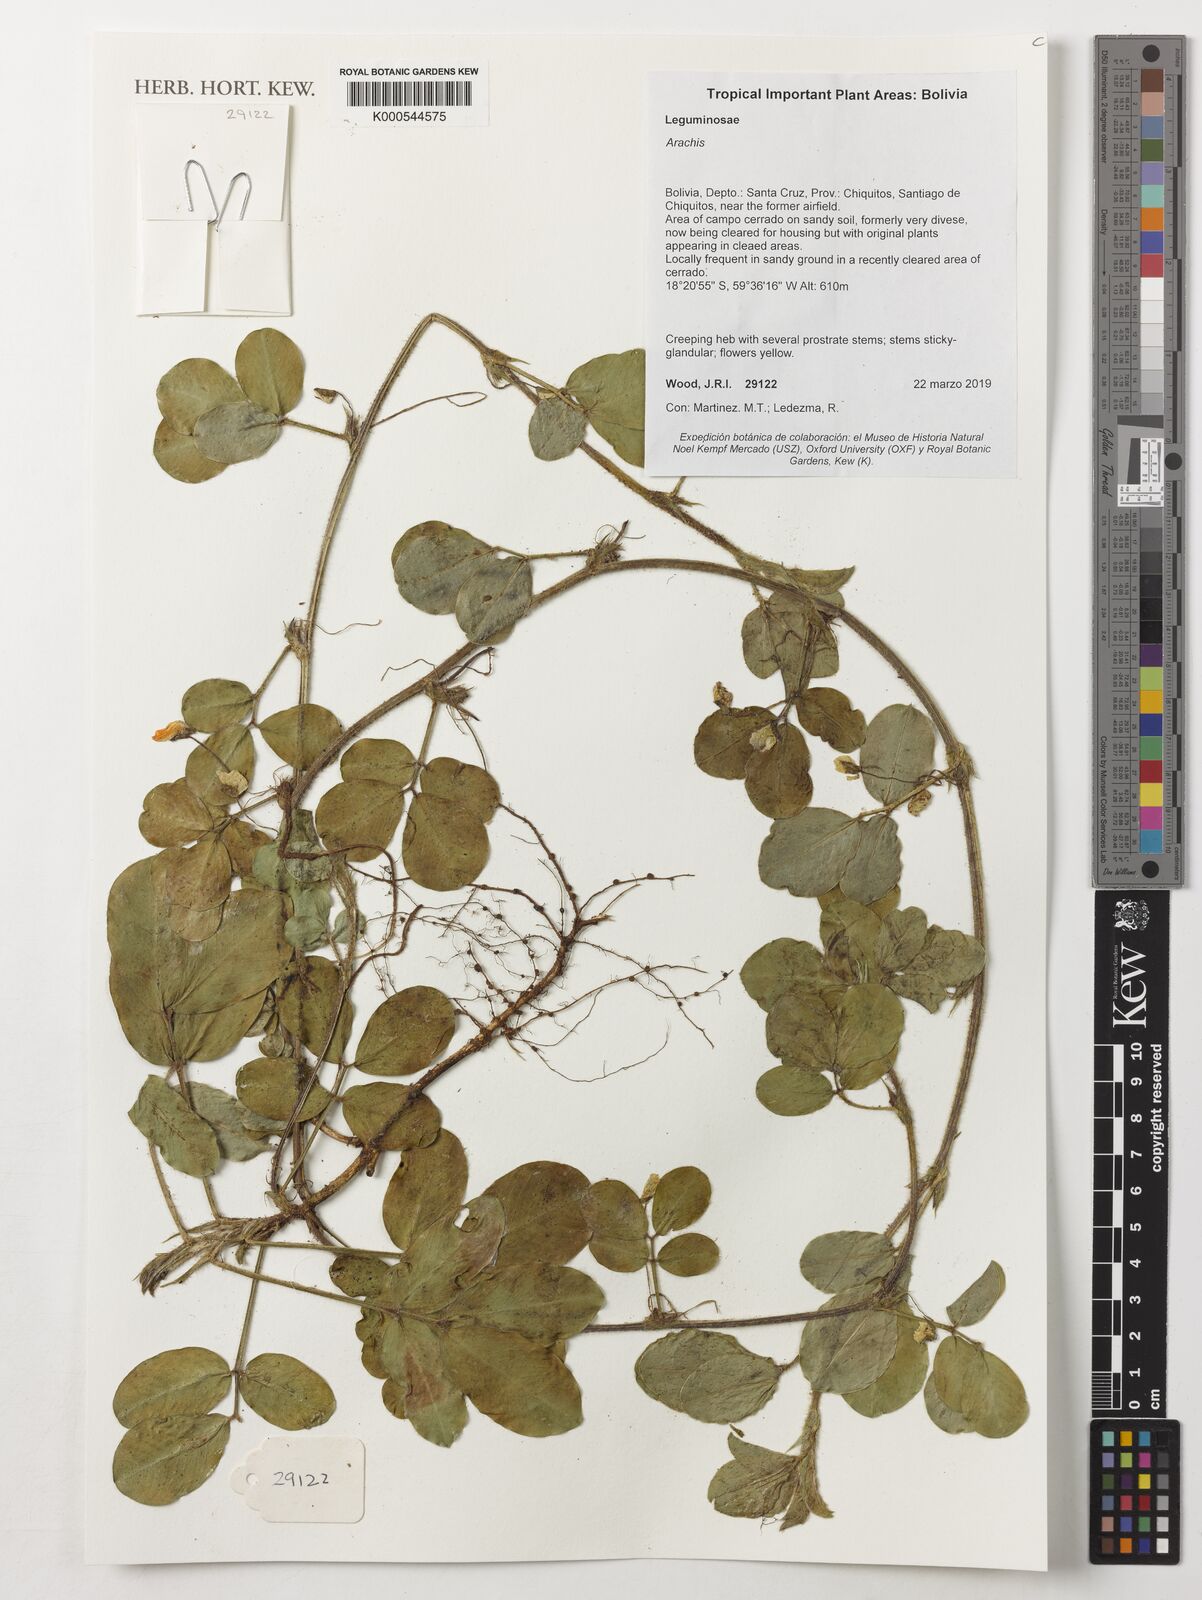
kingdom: Plantae
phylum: Tracheophyta
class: Magnoliopsida
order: Fabales
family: Fabaceae
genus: Arachis
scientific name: Arachis
